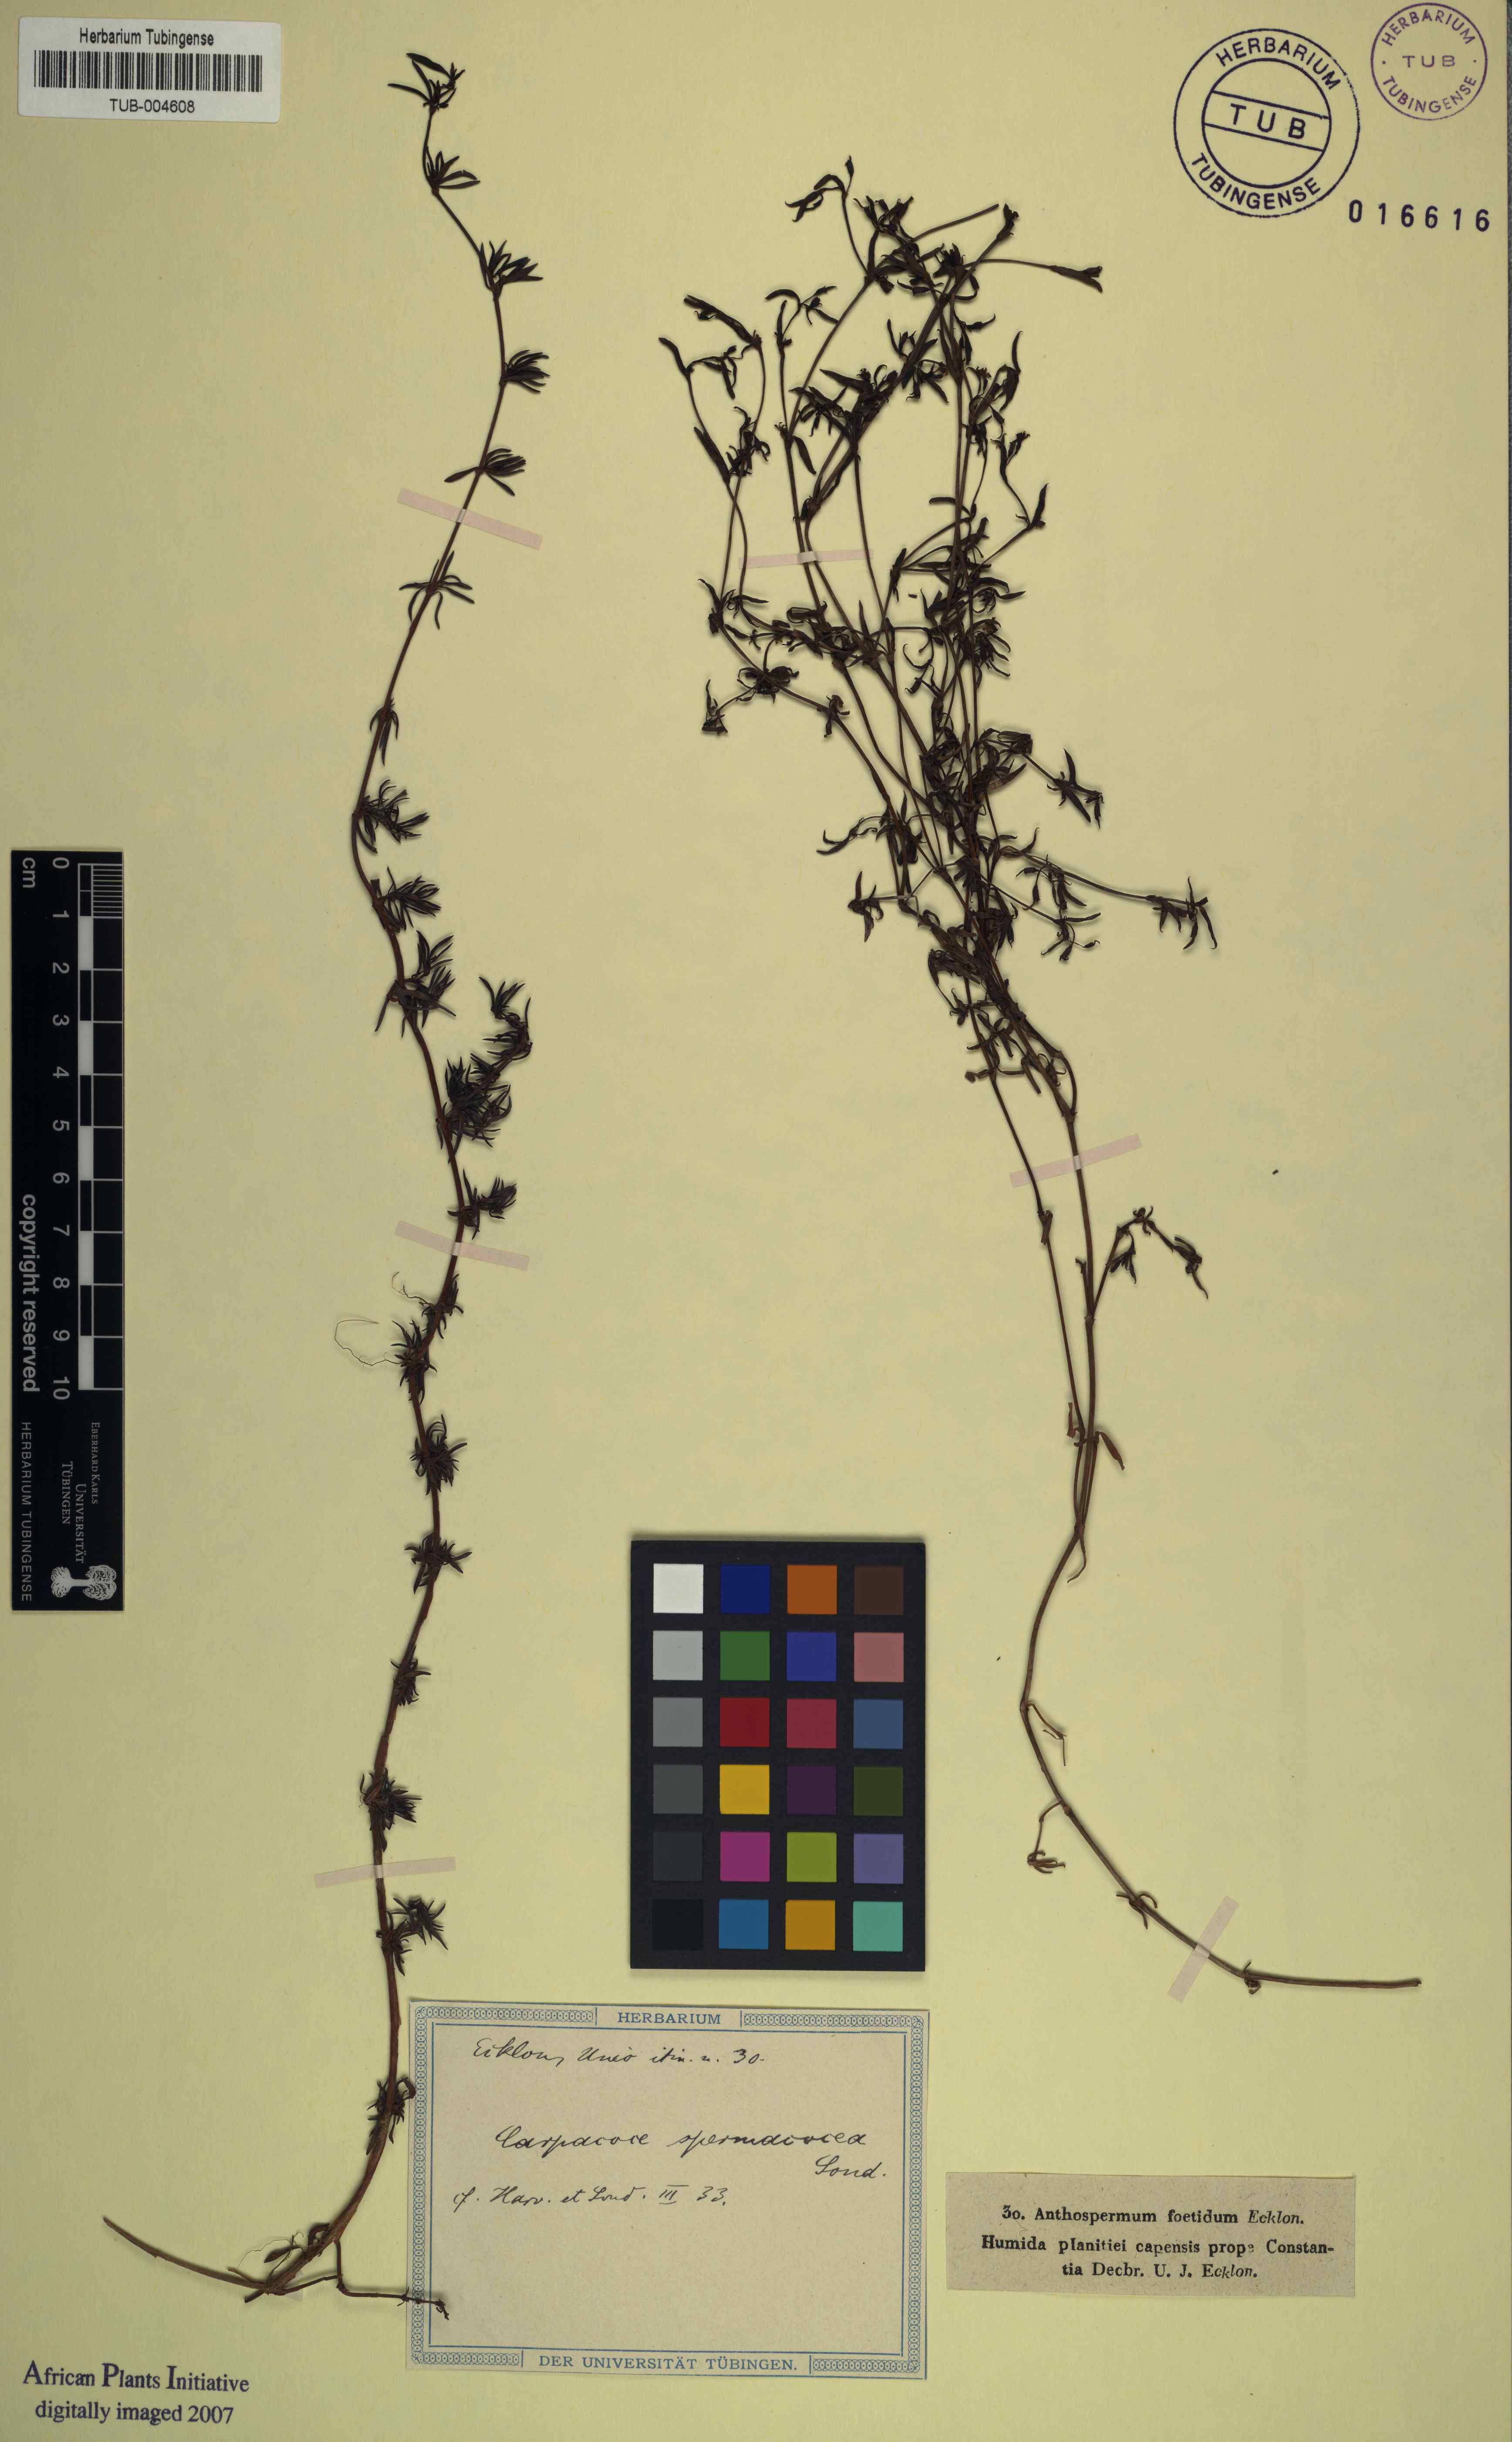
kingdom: Plantae
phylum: Tracheophyta
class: Magnoliopsida
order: Gentianales
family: Rubiaceae
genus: Carpacoce
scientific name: Carpacoce spermacoce
